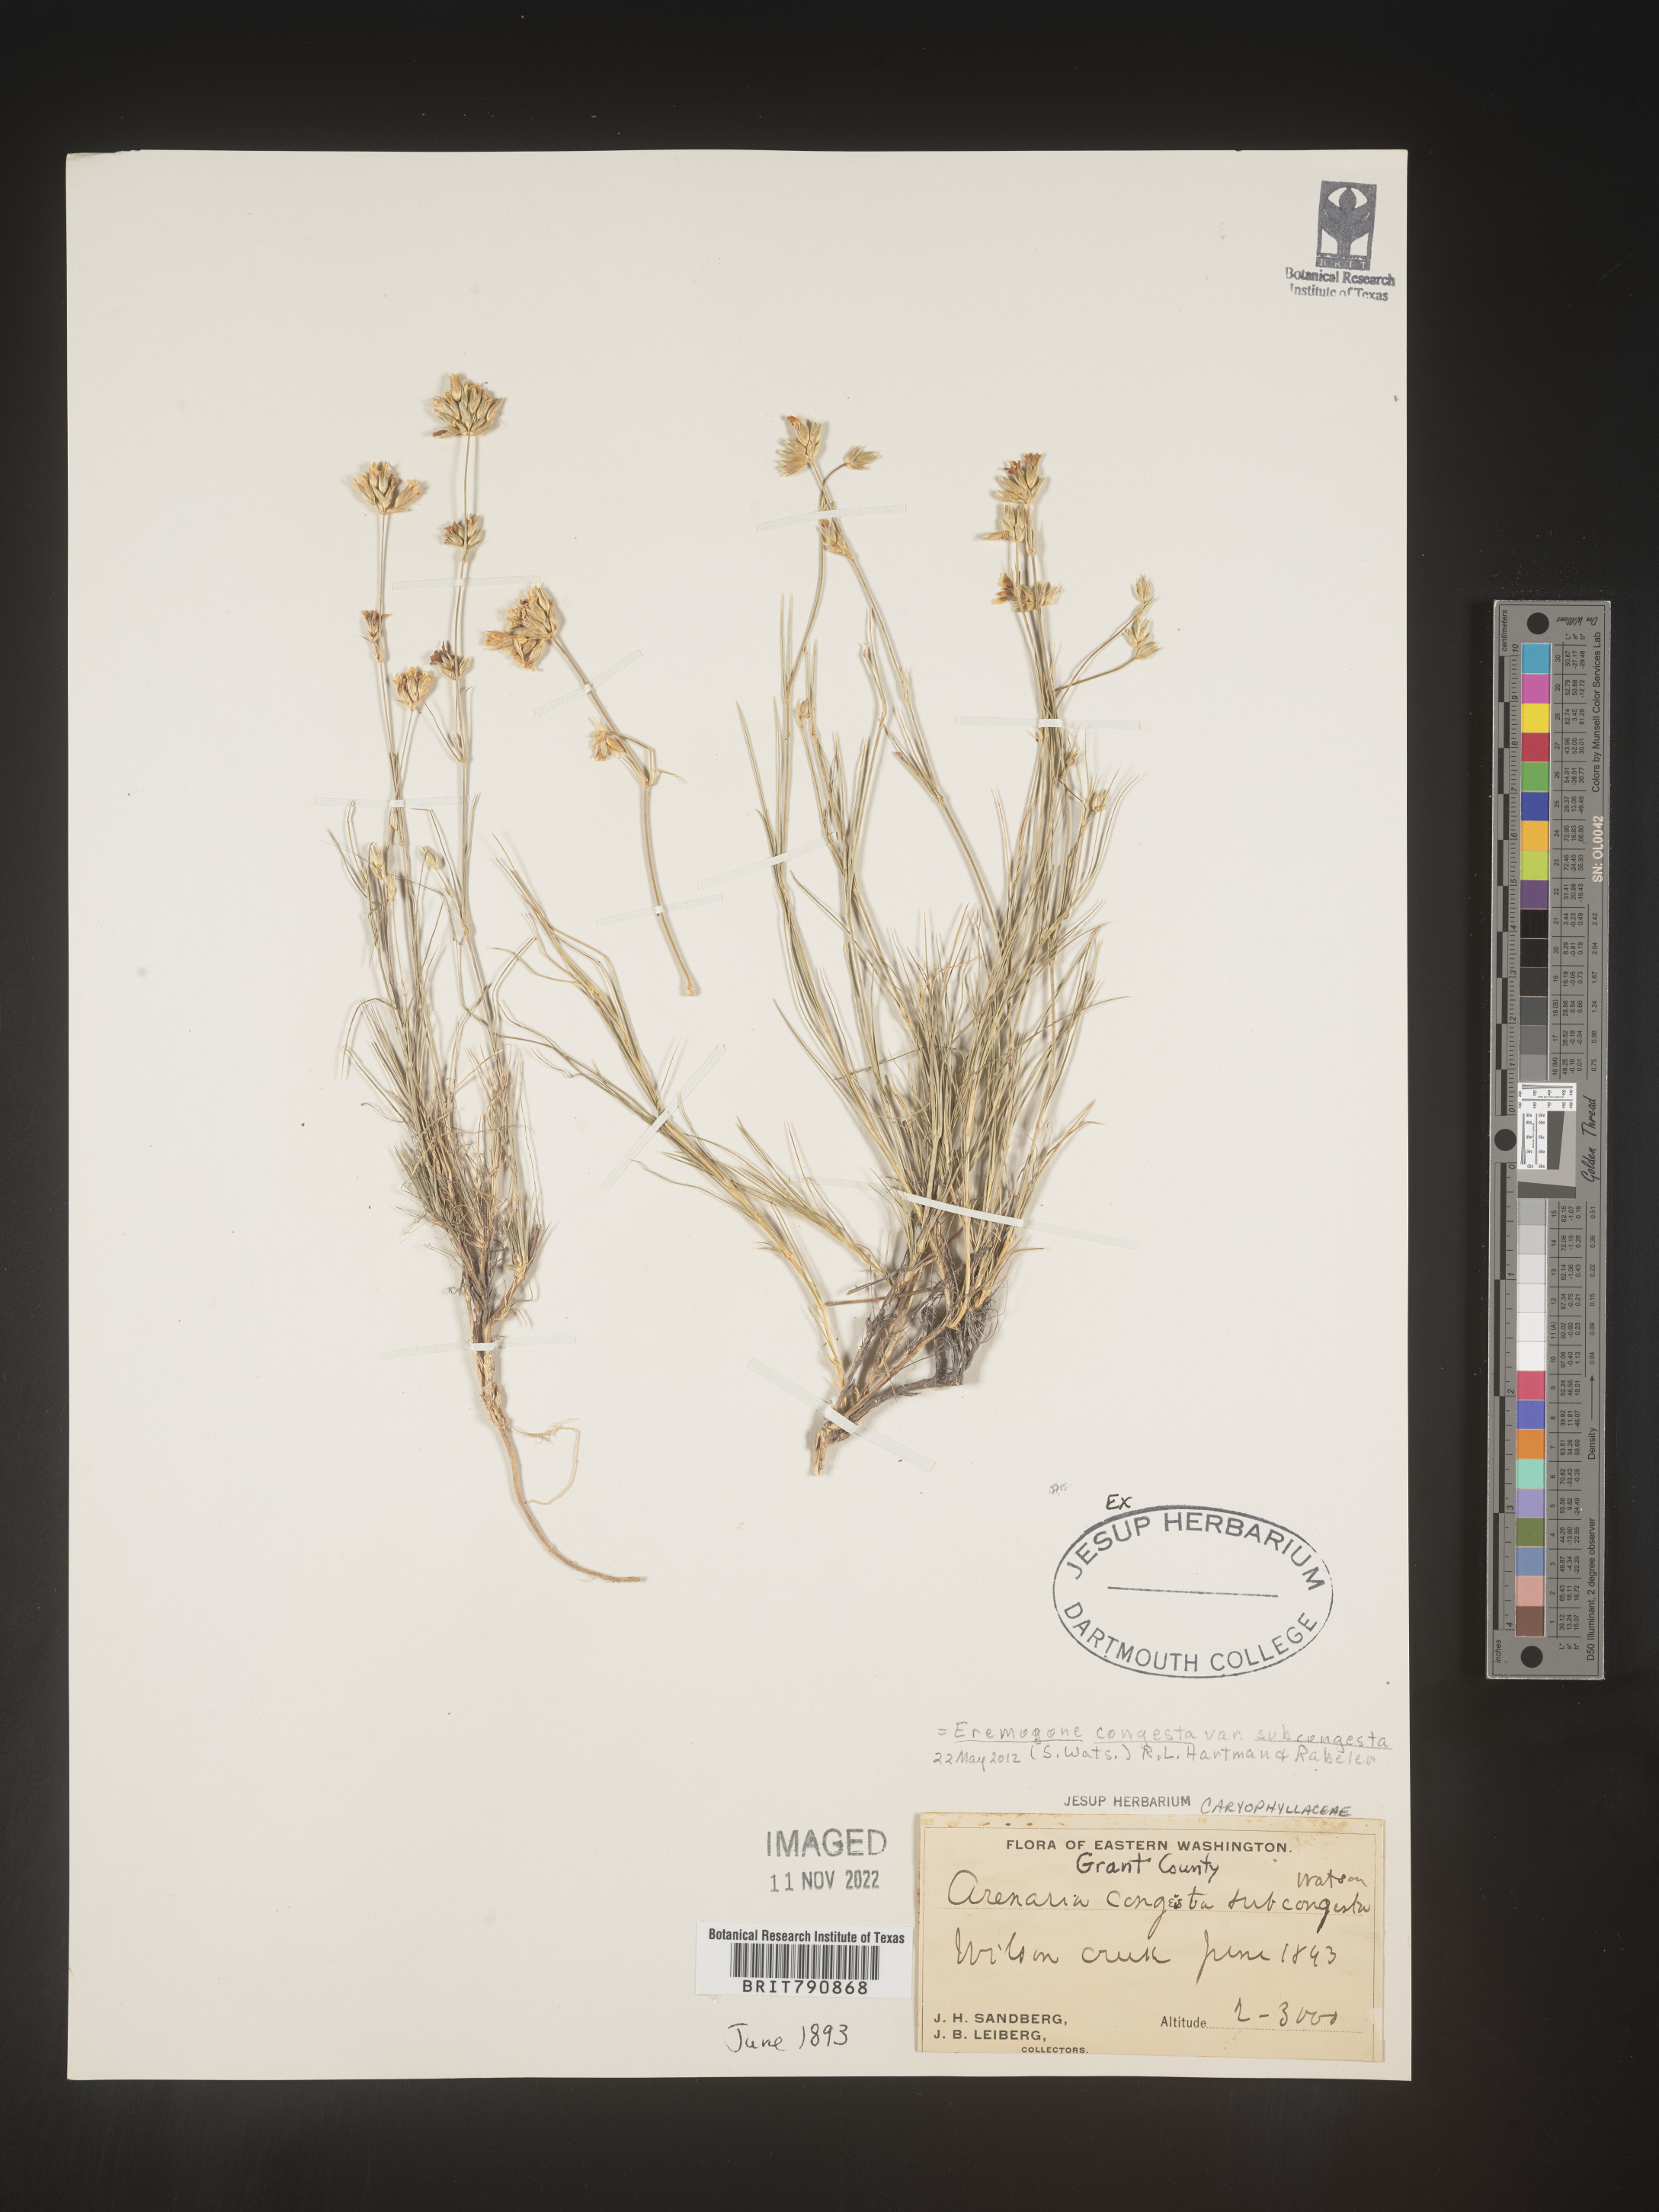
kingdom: Plantae
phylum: Tracheophyta
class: Magnoliopsida
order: Caryophyllales
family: Caryophyllaceae
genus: Eremogone
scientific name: Eremogone
